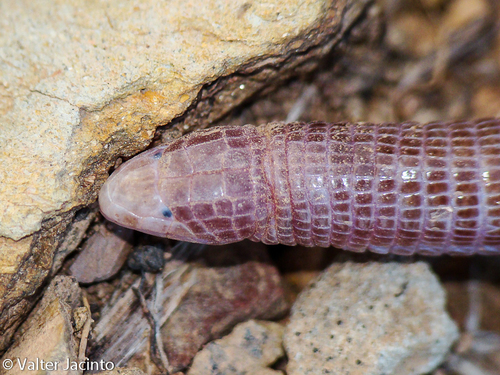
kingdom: Animalia
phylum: Chordata
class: Squamata
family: Blanidae
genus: Blanus
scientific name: Blanus cinereus
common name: Mediterranean worm lizard
